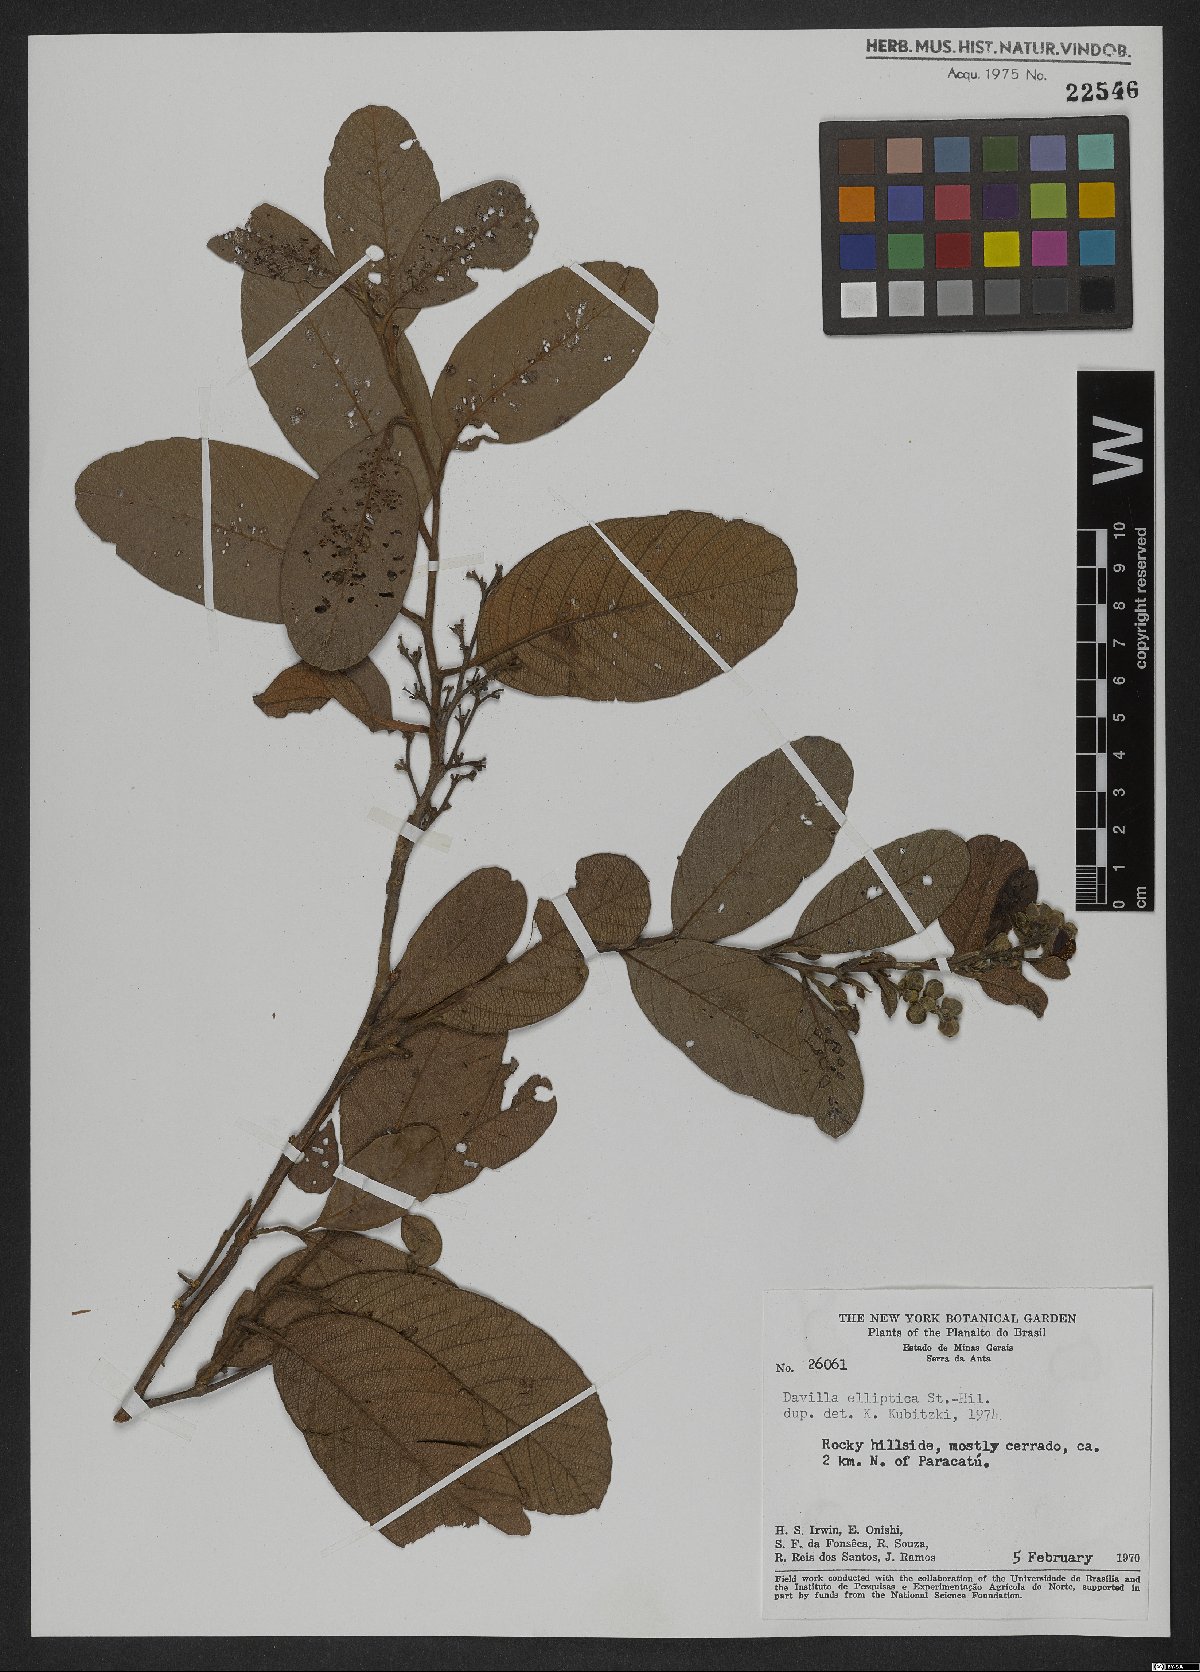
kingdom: Plantae
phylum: Tracheophyta
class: Magnoliopsida
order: Dilleniales
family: Dilleniaceae
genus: Davilla
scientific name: Davilla elliptica
